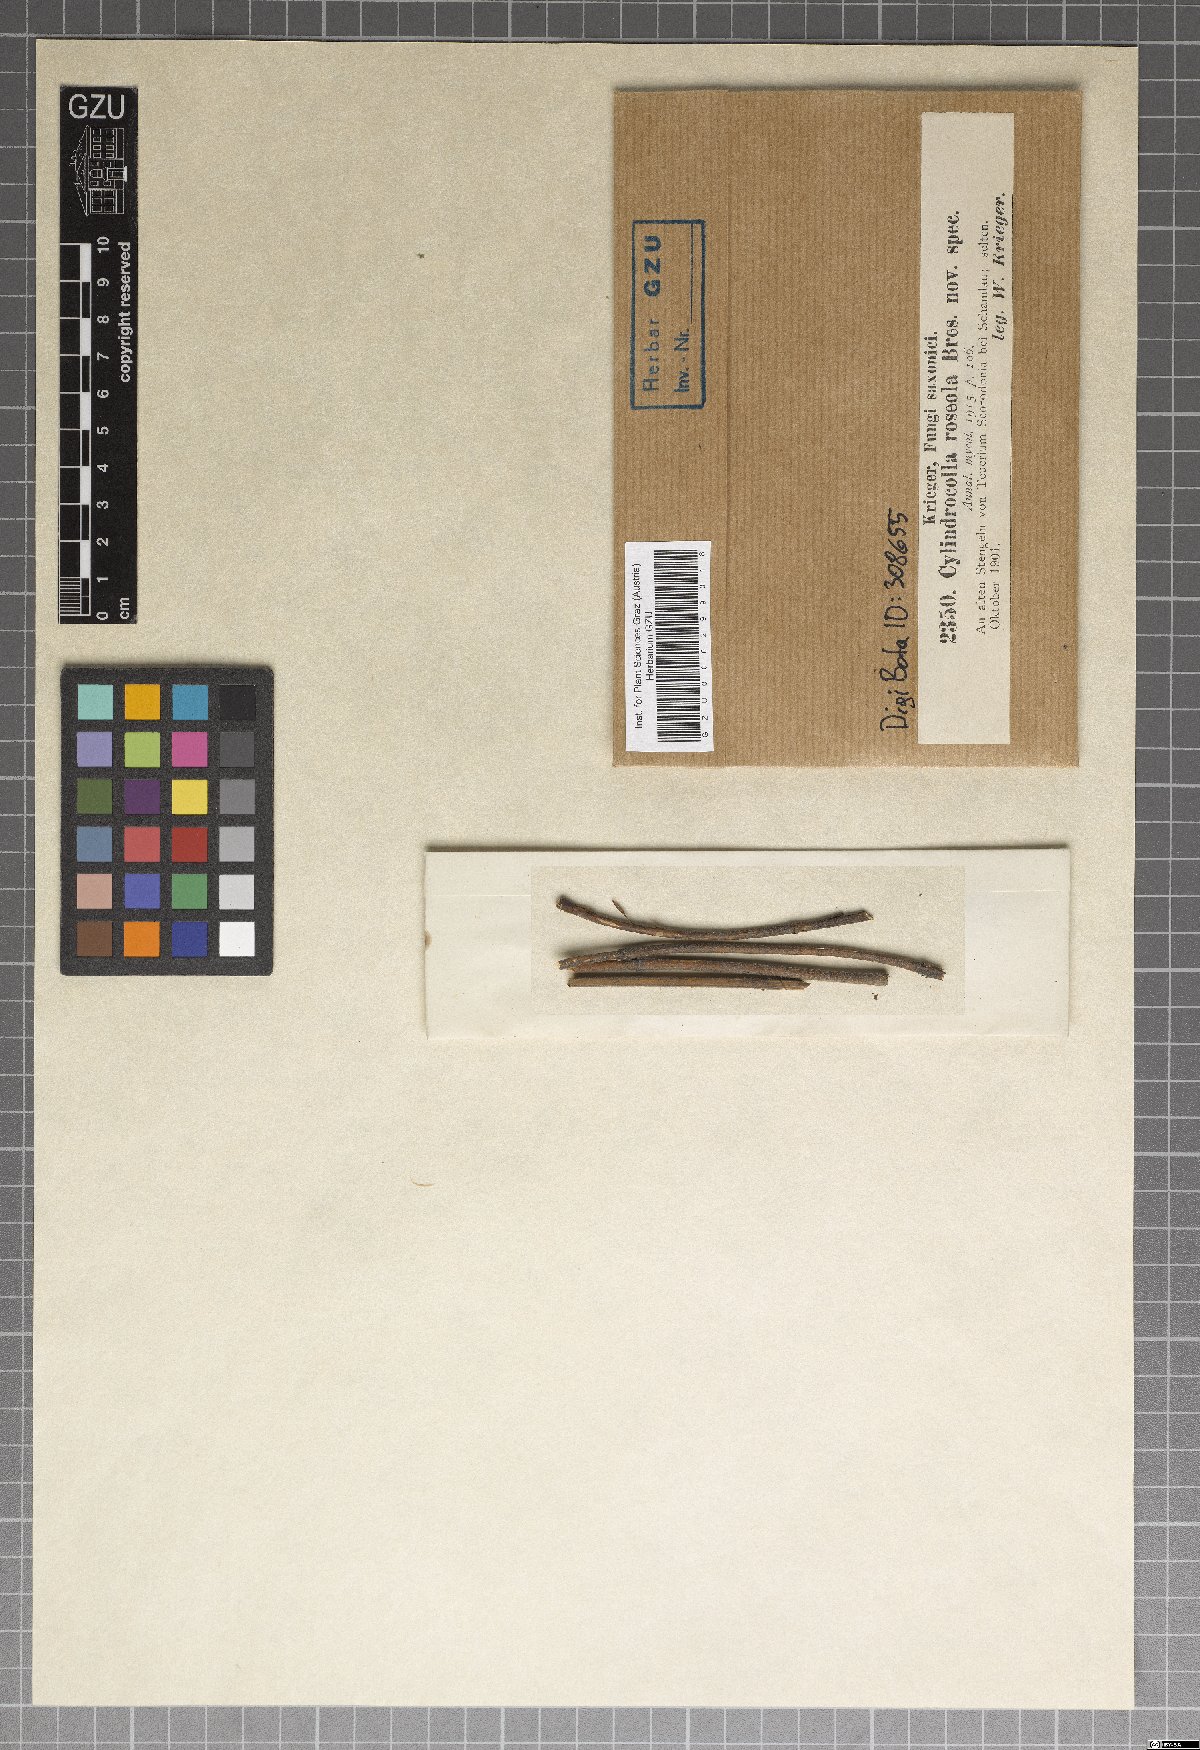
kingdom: Fungi
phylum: Ascomycota
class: Leotiomycetes
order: Helotiales
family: Calloriaceae
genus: Cylindrocolla
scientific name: Cylindrocolla roseola
